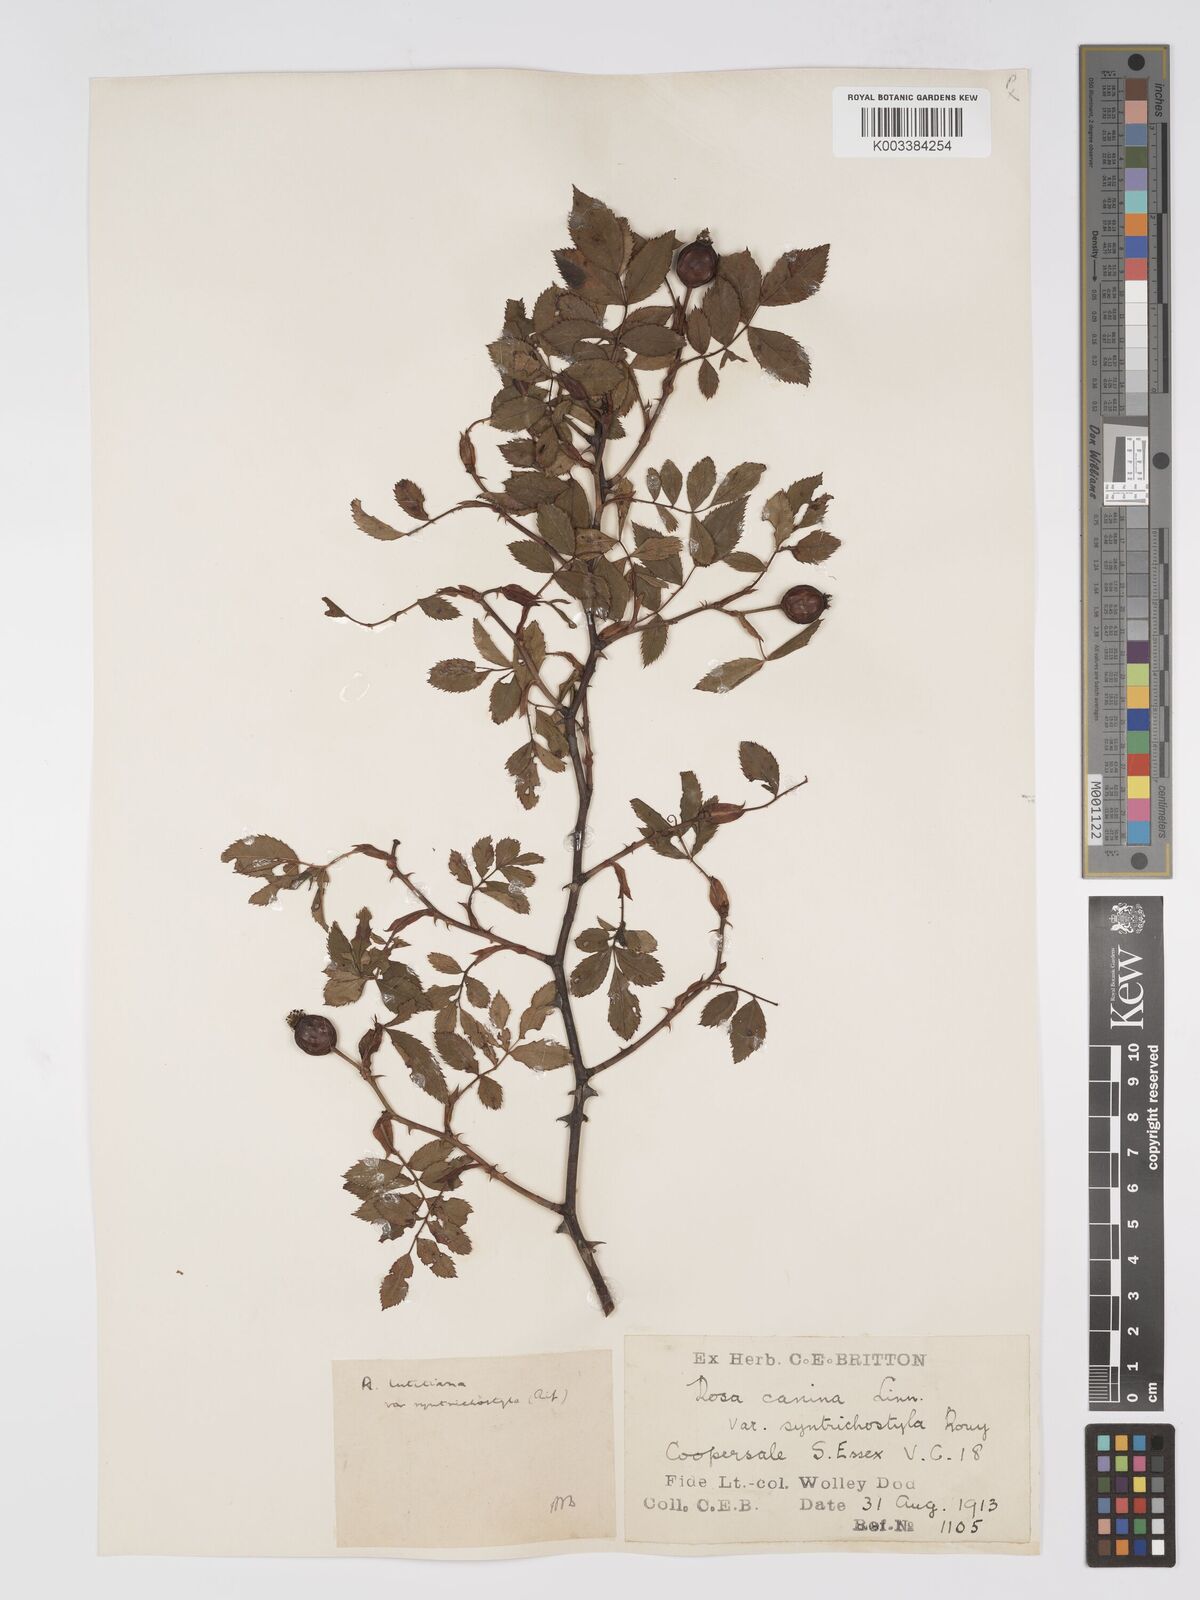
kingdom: Plantae
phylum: Tracheophyta
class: Magnoliopsida
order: Rosales
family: Rosaceae
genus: Rosa
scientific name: Rosa canina
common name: Dog rose
